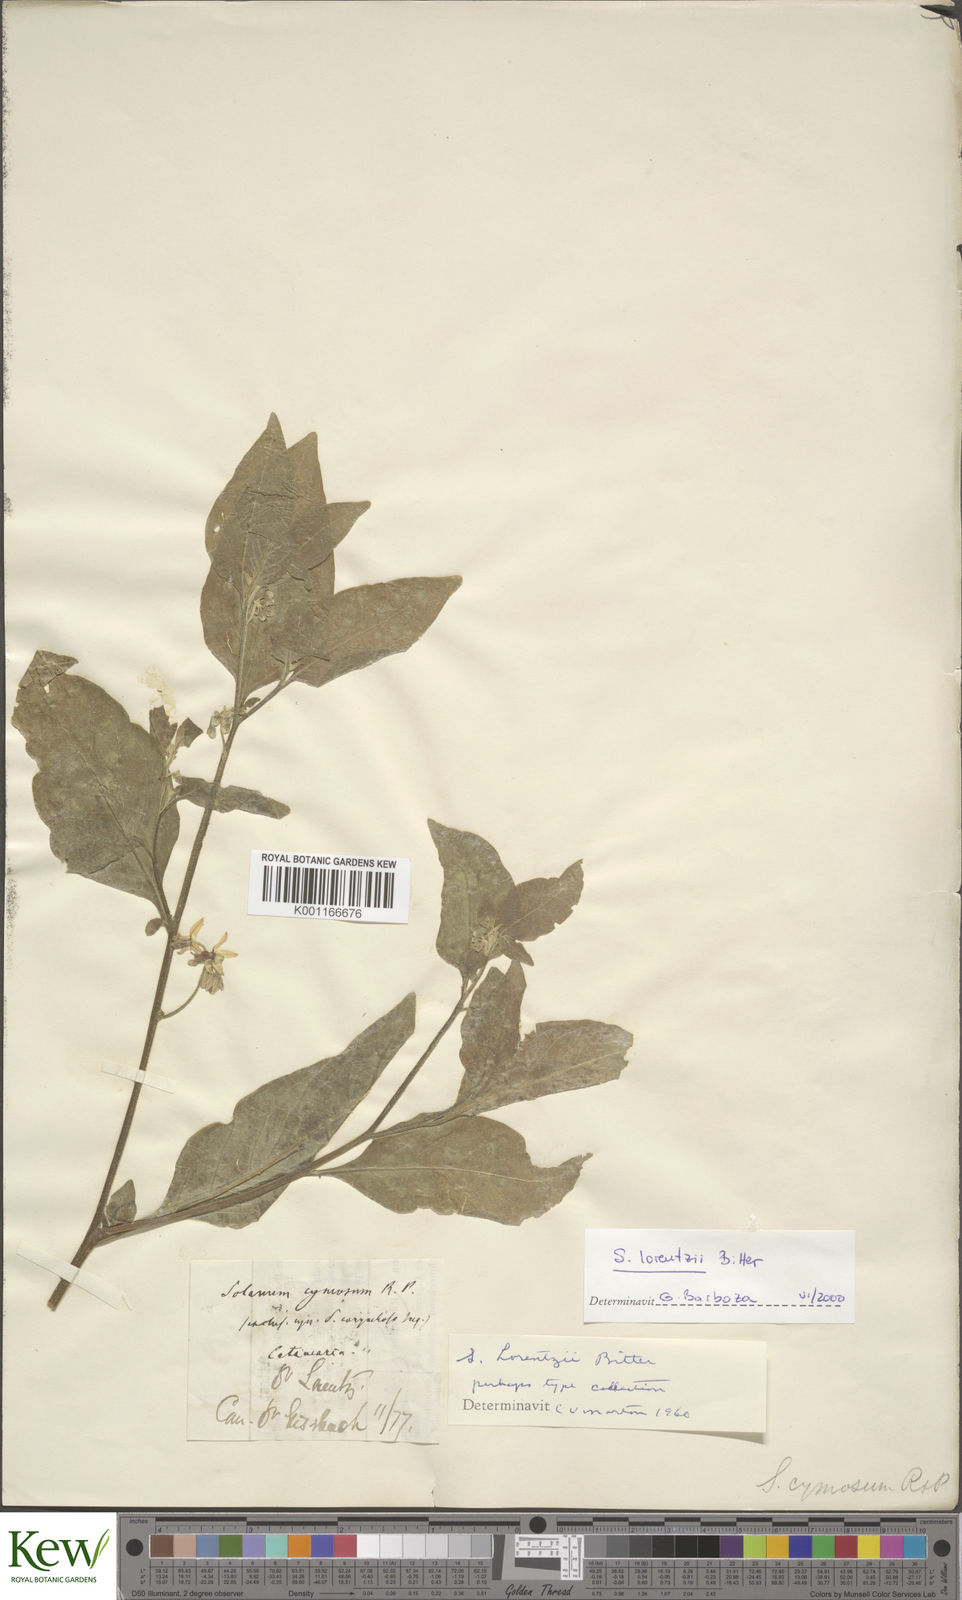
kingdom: Plantae
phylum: Tracheophyta
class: Magnoliopsida
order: Solanales
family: Solanaceae
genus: Solanum
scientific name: Solanum aloysiifolium
